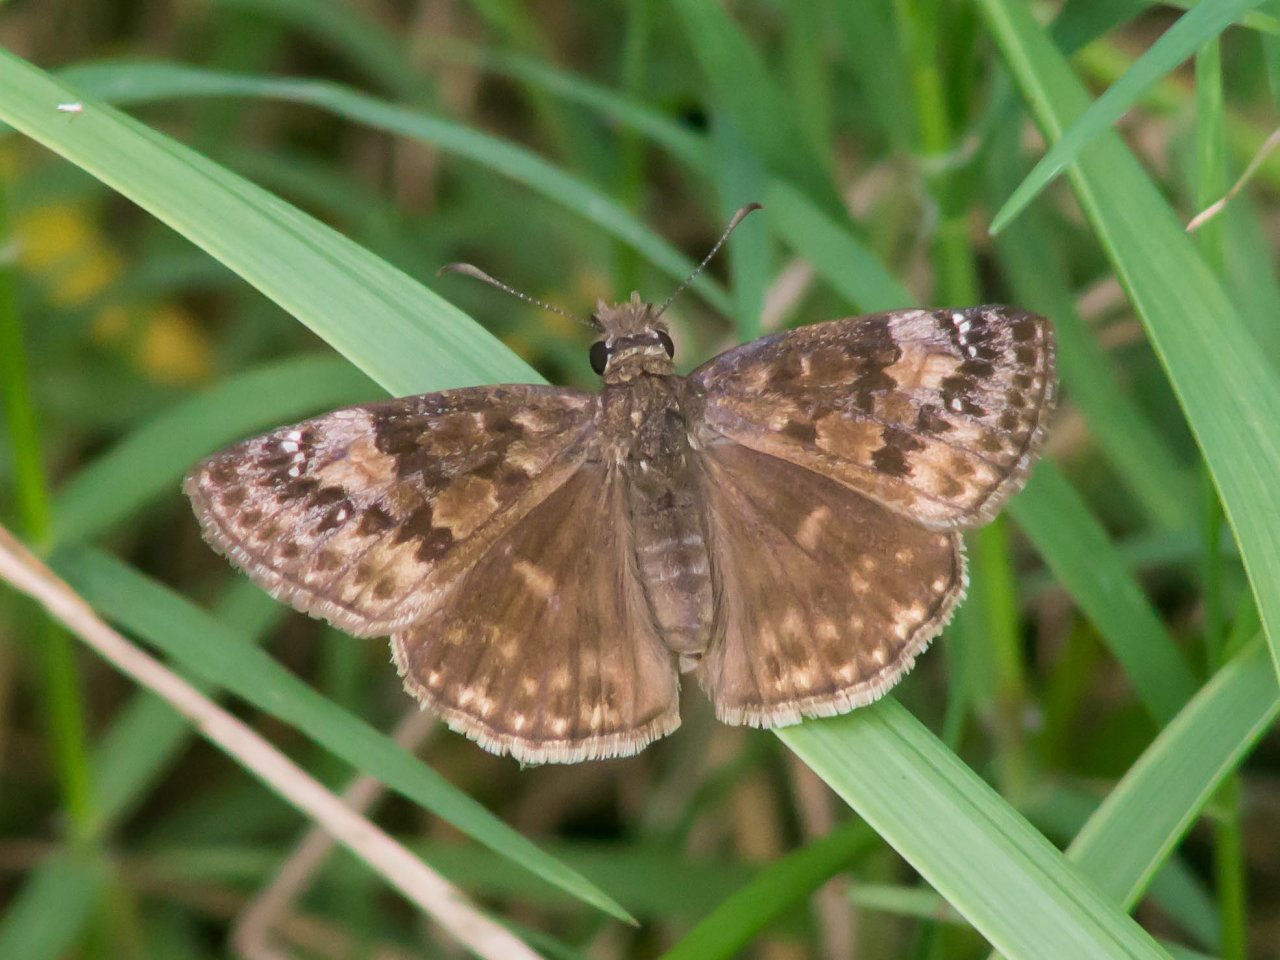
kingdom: Animalia
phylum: Arthropoda
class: Insecta
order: Lepidoptera
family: Hesperiidae
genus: Gesta
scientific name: Gesta
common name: Wild Indigo Duskywing
